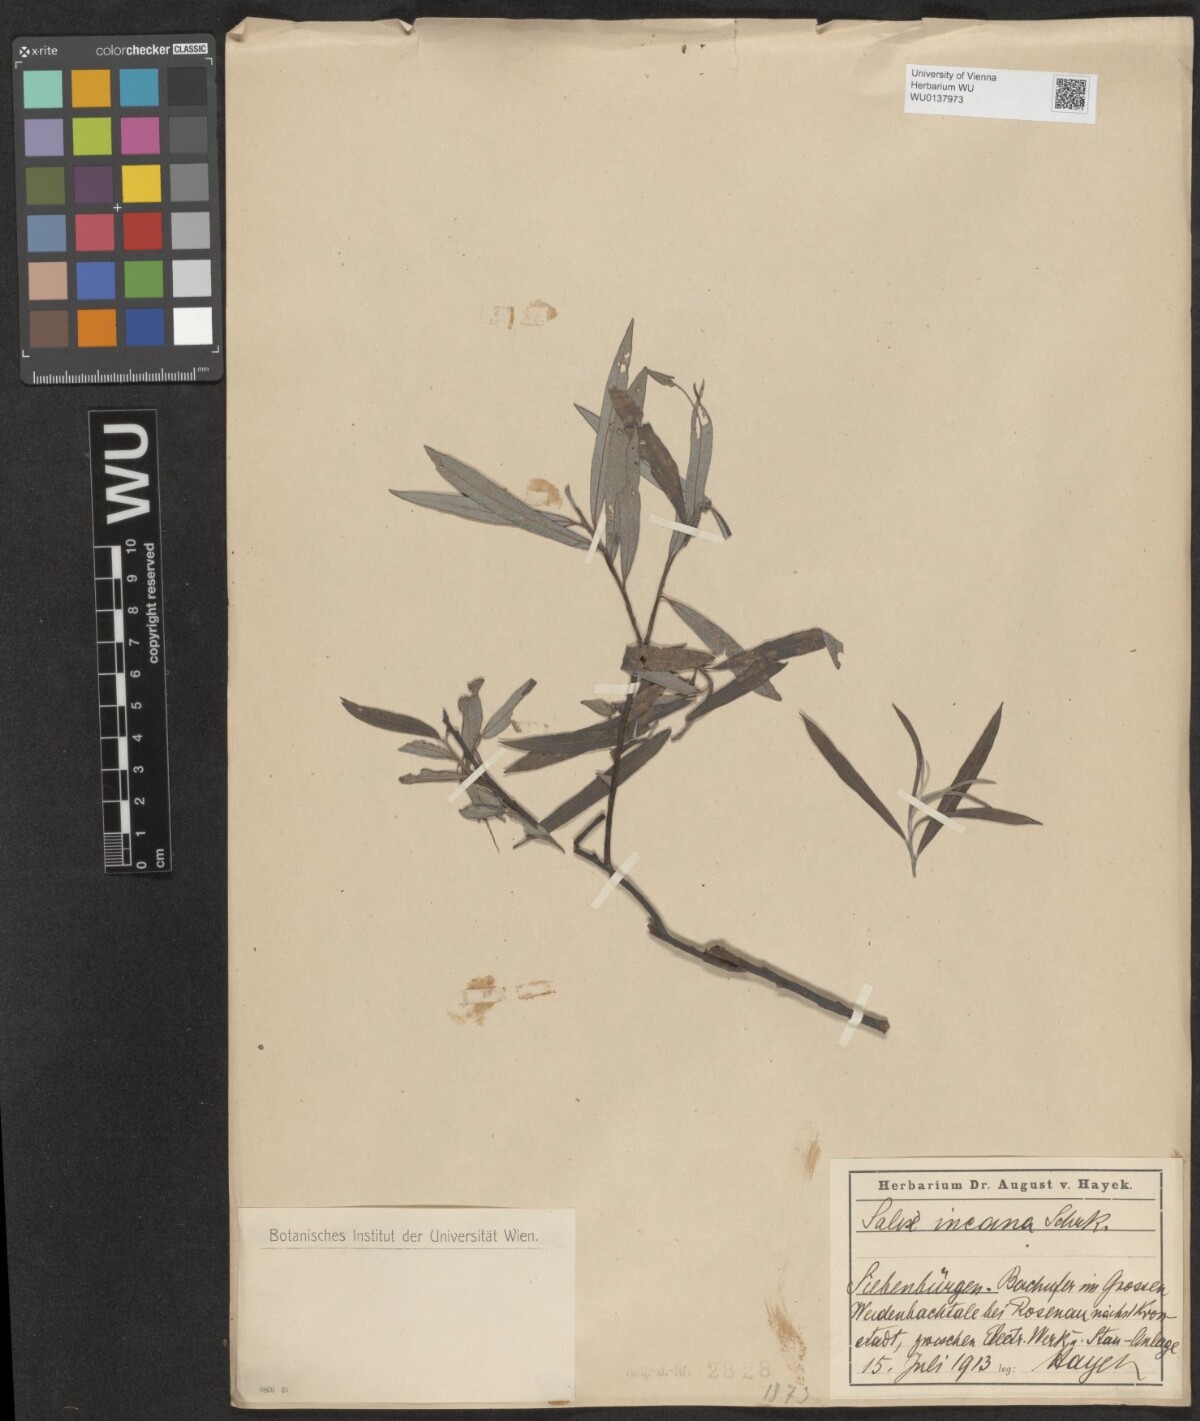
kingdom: Plantae
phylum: Tracheophyta
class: Magnoliopsida
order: Malpighiales
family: Salicaceae
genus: Salix
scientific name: Salix eleagnos
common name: Elaeagnus willow
